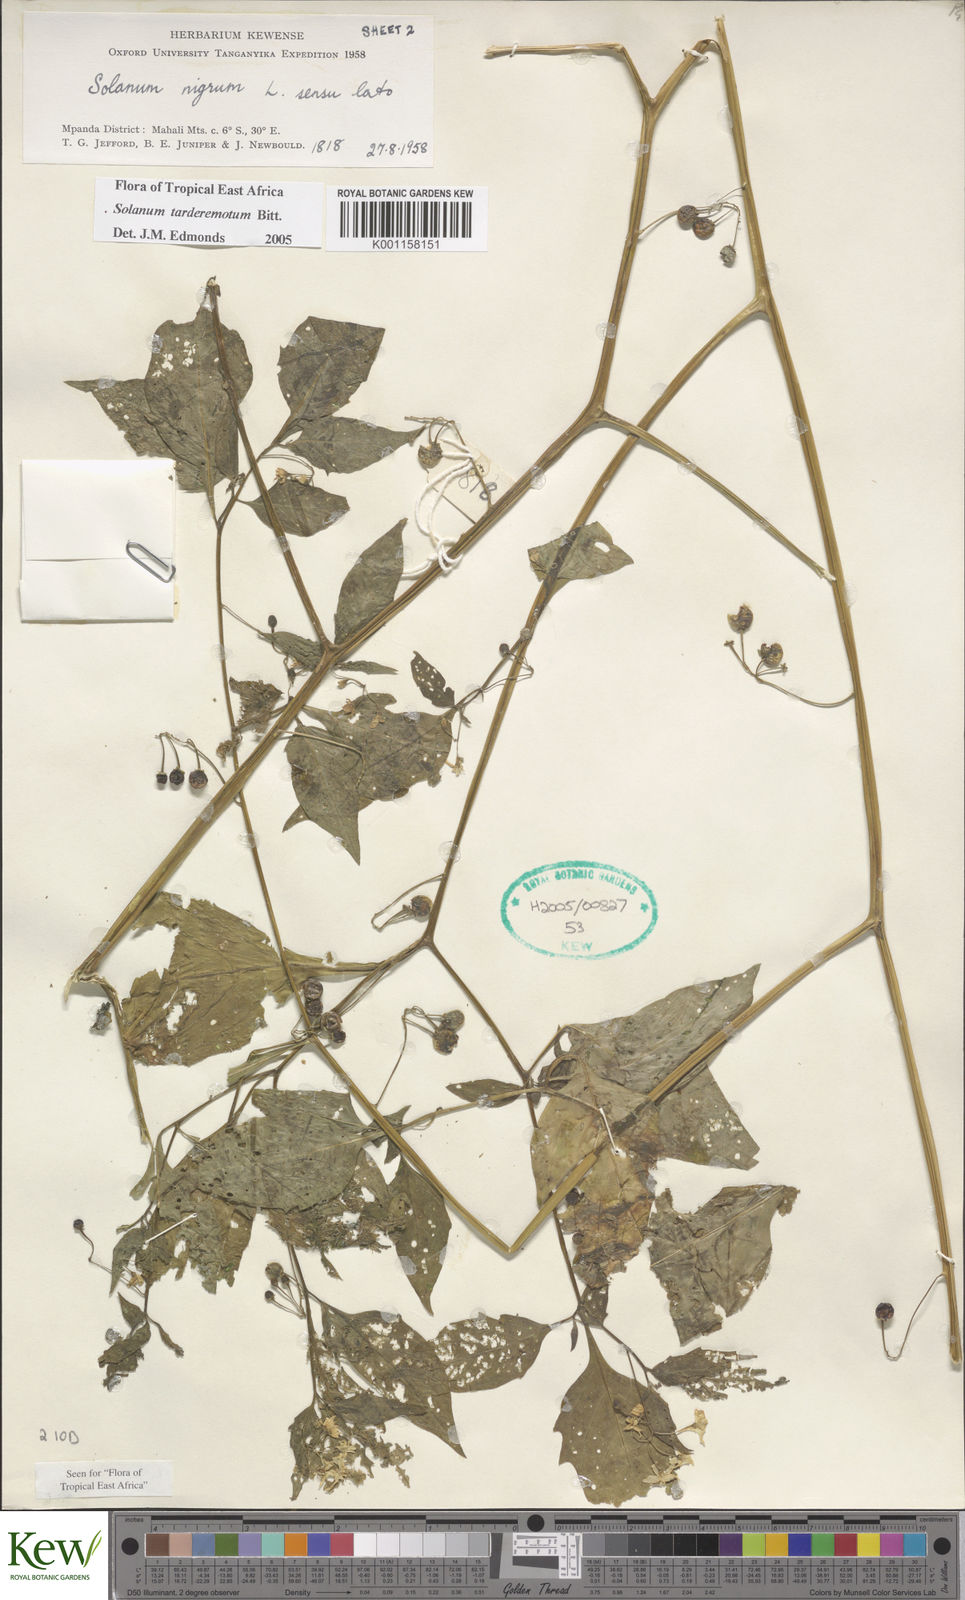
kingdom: Plantae
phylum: Tracheophyta
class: Magnoliopsida
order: Solanales
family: Solanaceae
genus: Solanum
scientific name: Solanum tarderemotum
